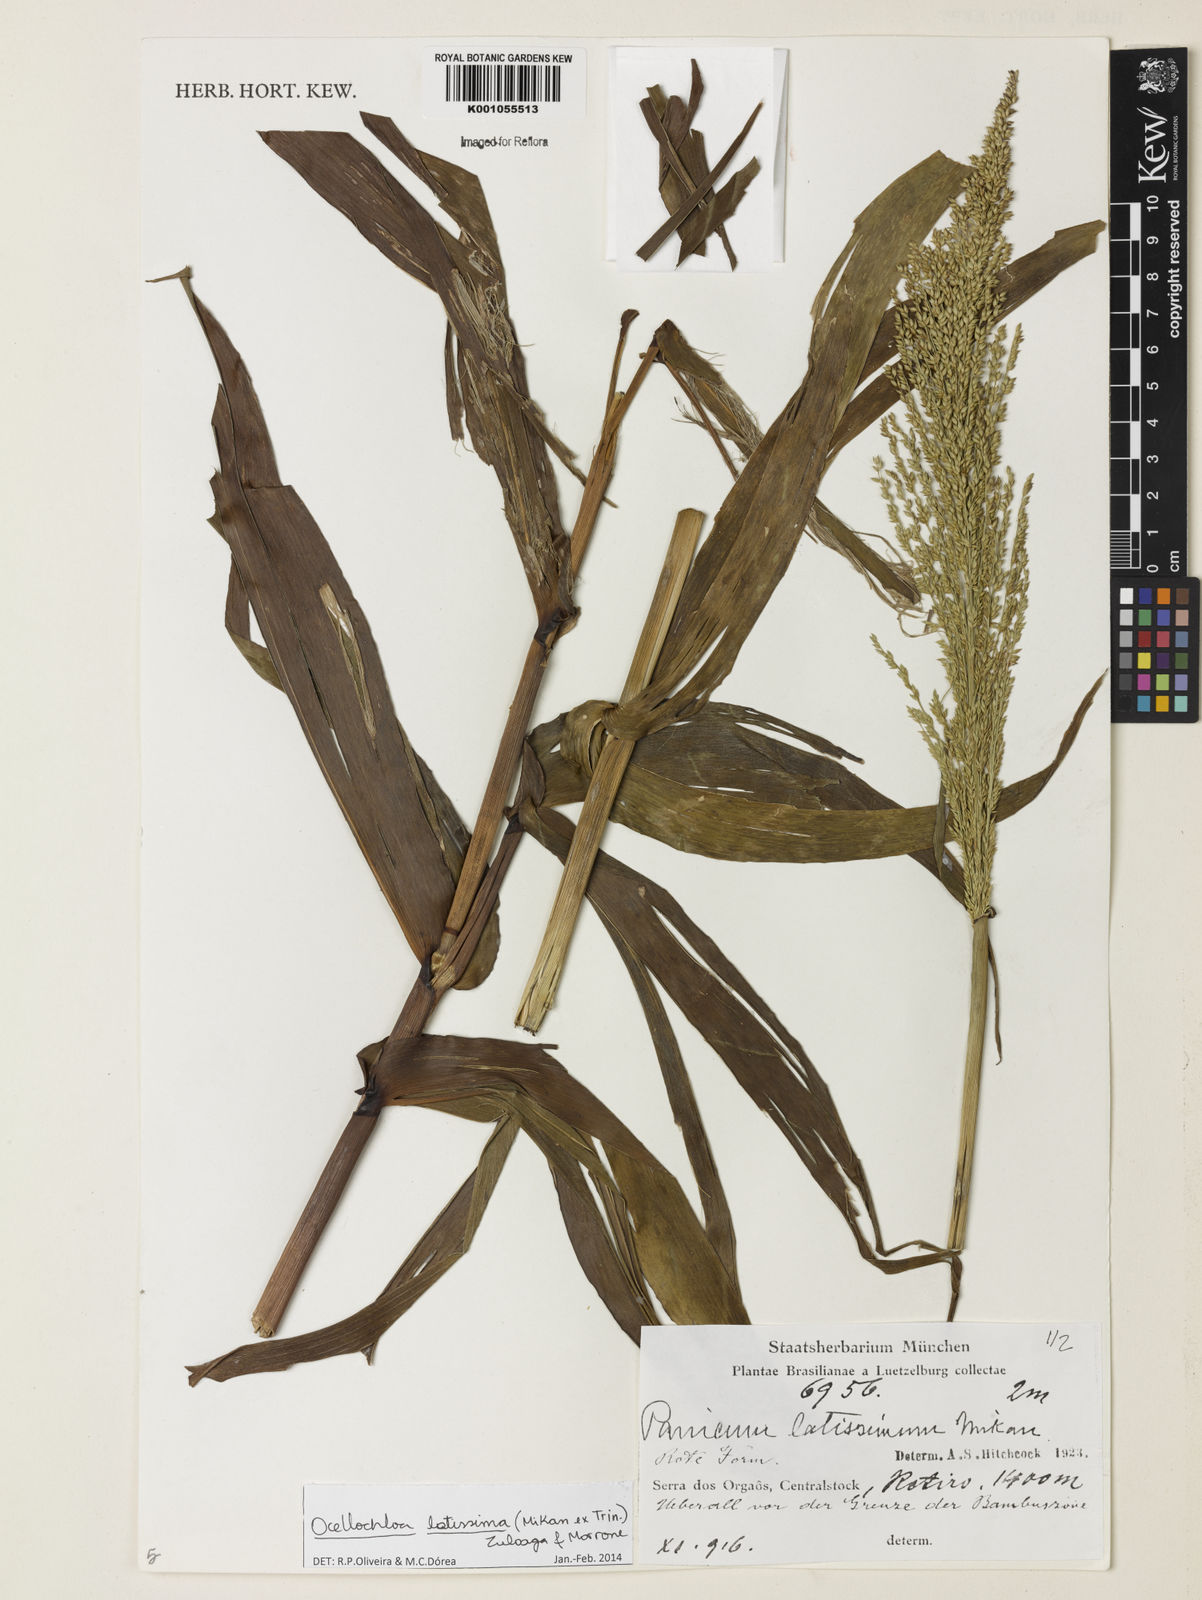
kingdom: Plantae
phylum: Tracheophyta
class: Liliopsida
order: Poales
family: Poaceae
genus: Ocellochloa
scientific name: Ocellochloa latissima
